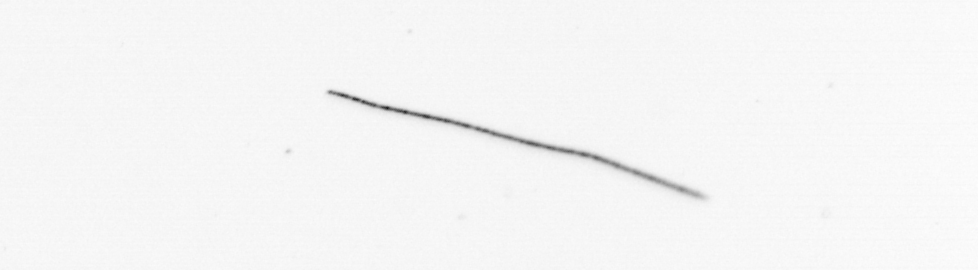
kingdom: Chromista
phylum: Ochrophyta
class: Bacillariophyceae
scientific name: Bacillariophyceae
